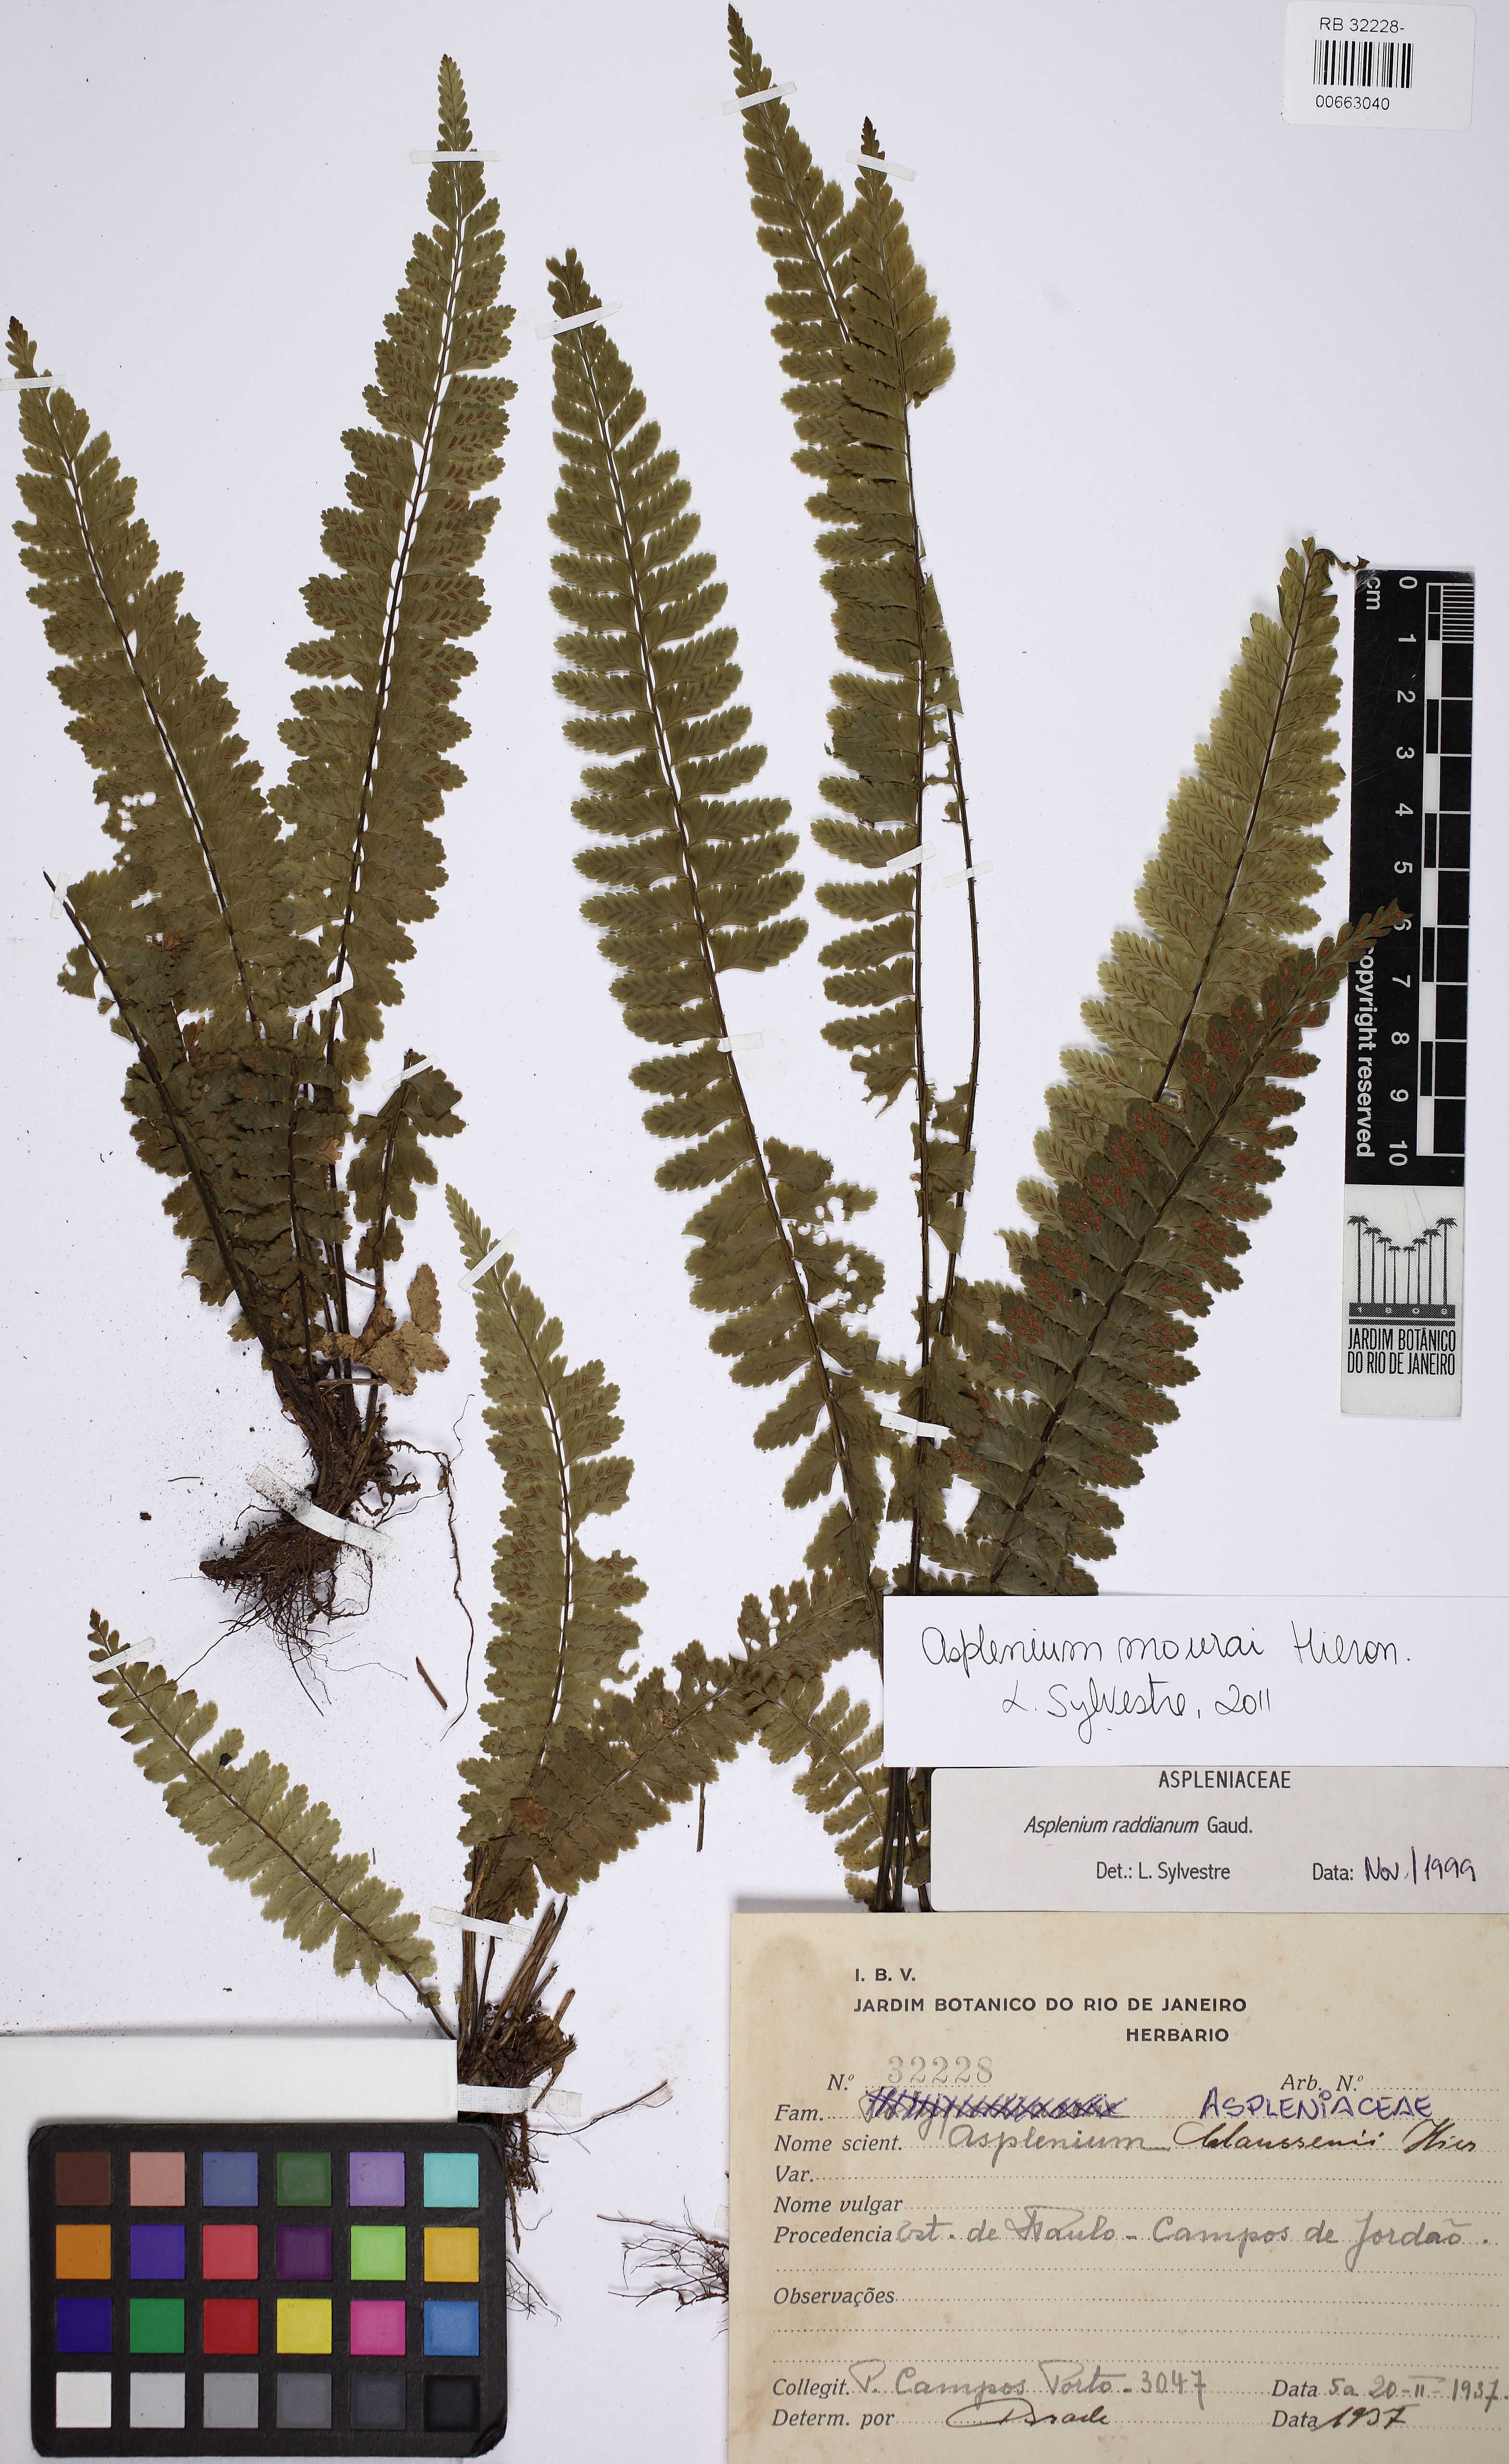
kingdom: Plantae
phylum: Tracheophyta
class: Polypodiopsida
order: Polypodiales
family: Aspleniaceae
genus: Asplenium
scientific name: Asplenium mourai
